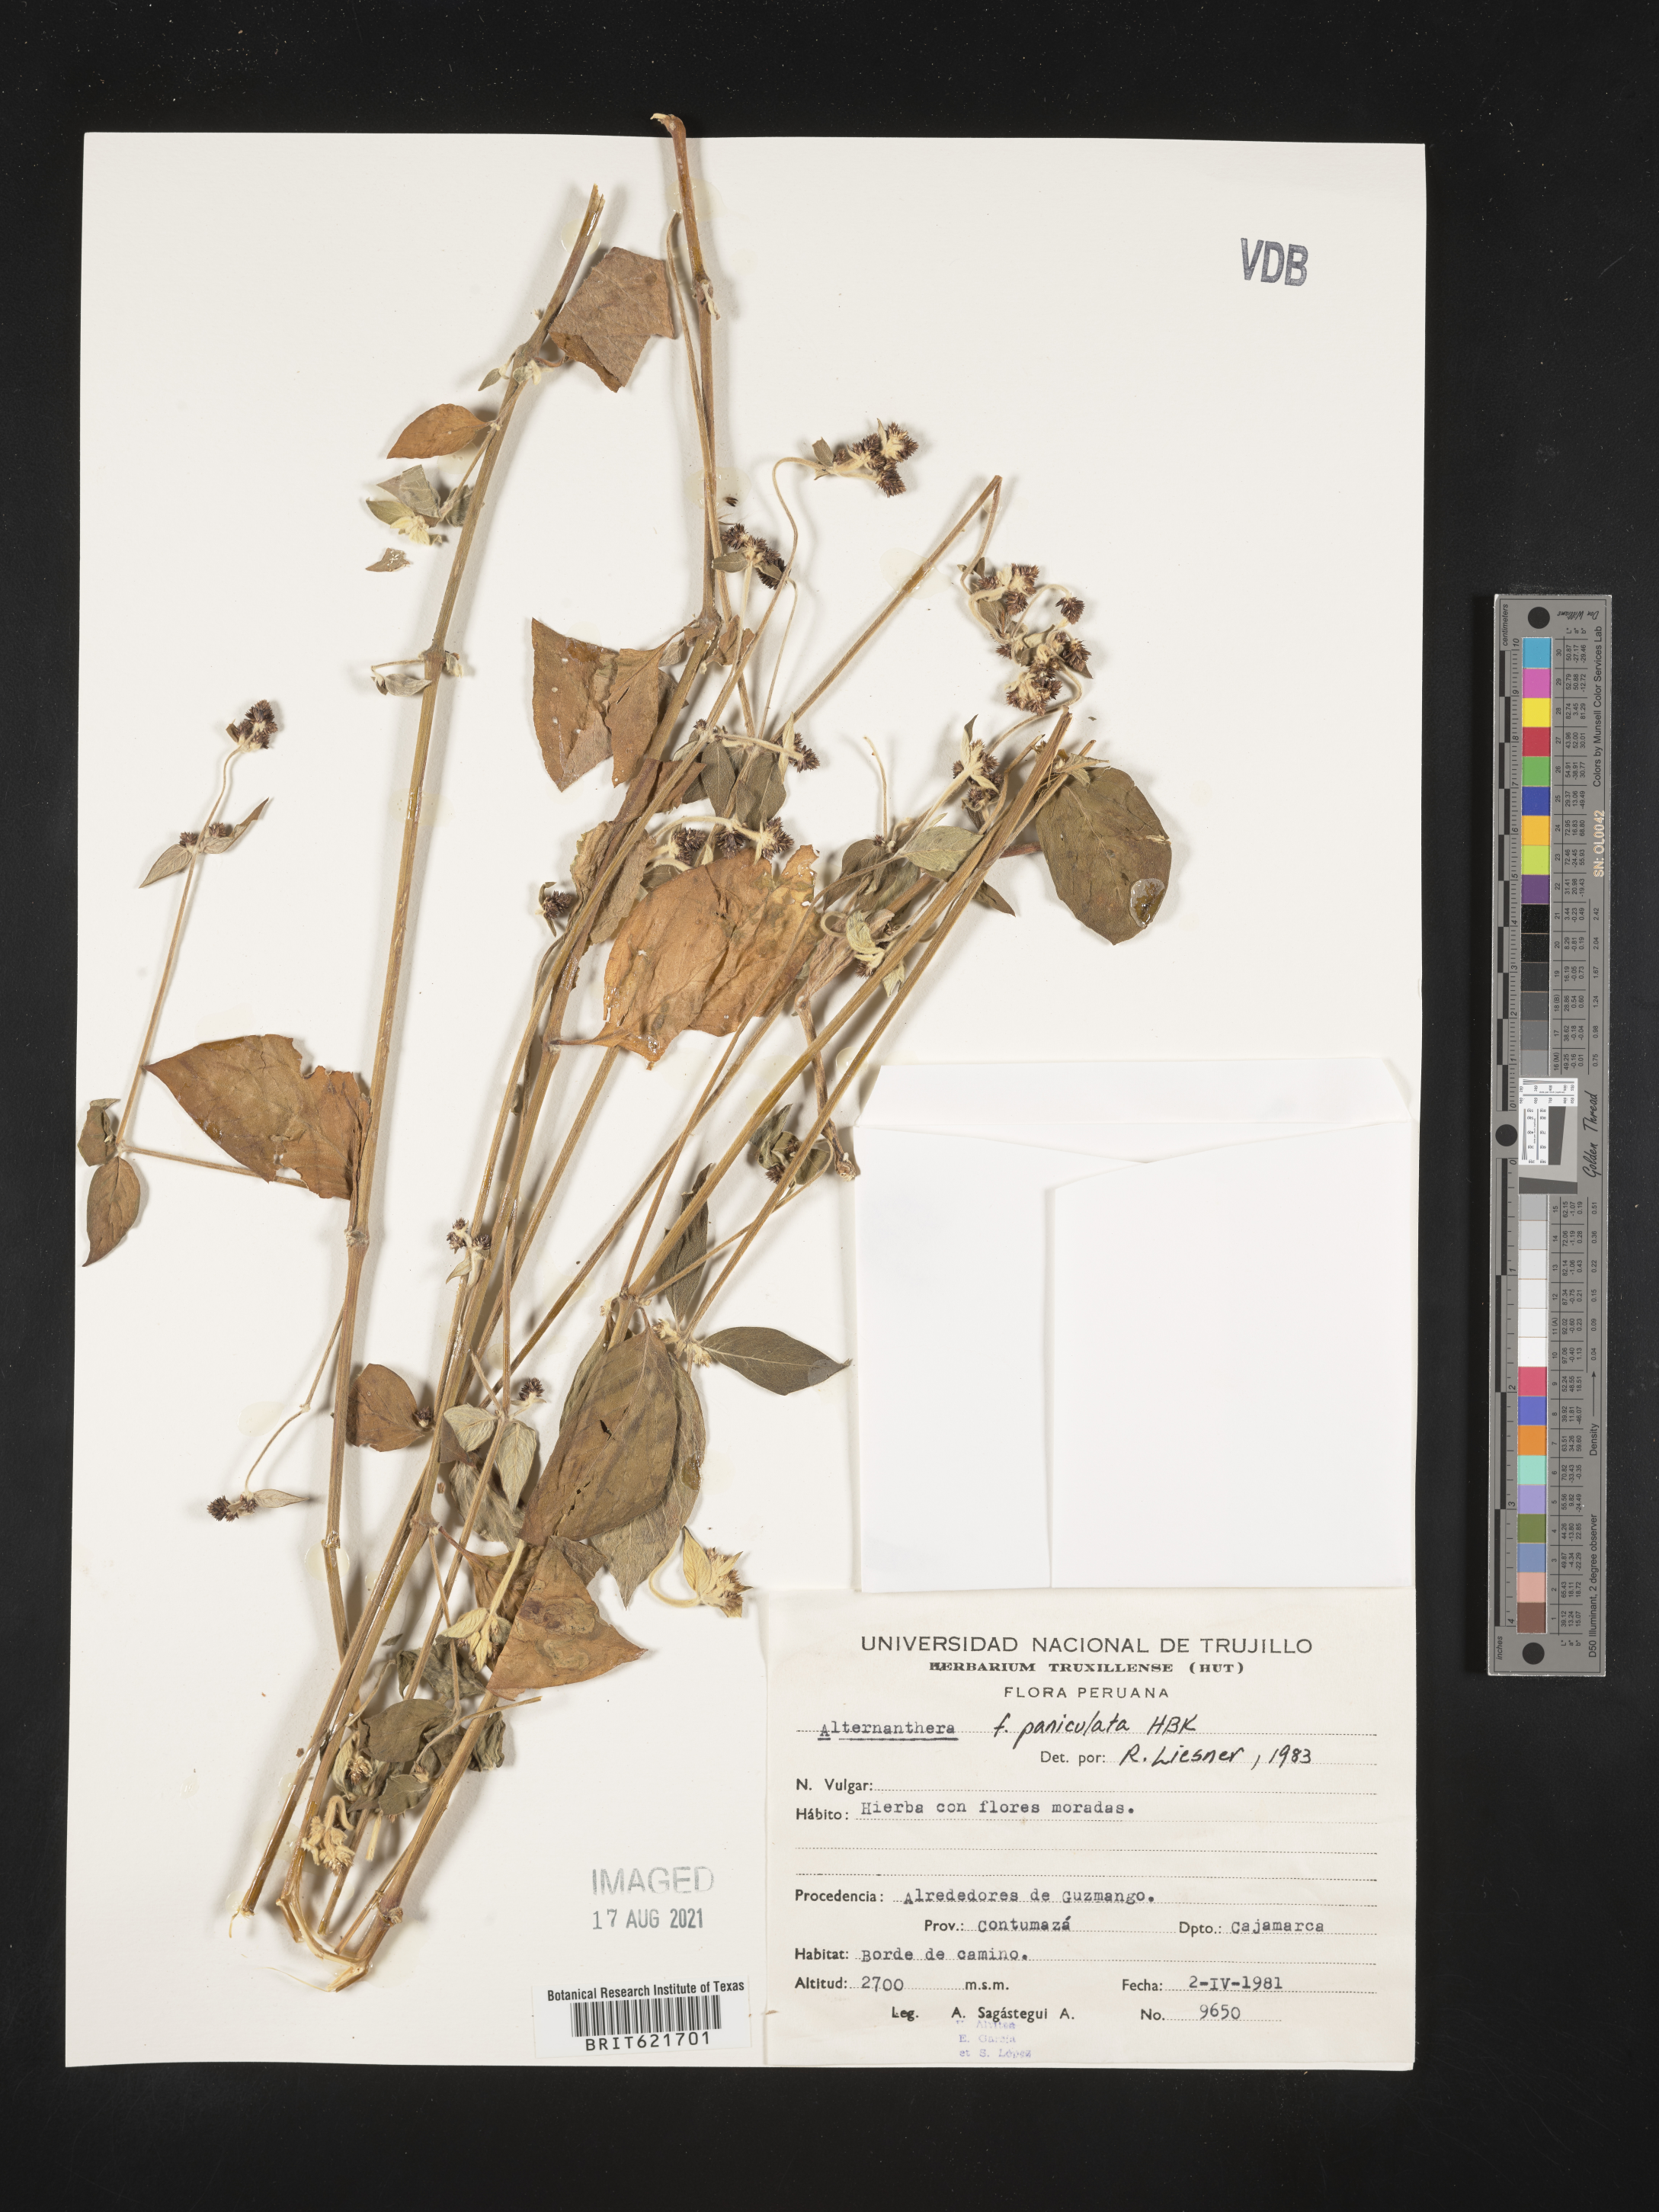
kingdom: Plantae
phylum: Tracheophyta
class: Magnoliopsida
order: Caryophyllales
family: Amaranthaceae
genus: Alternanthera
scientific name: Alternanthera porrigens
